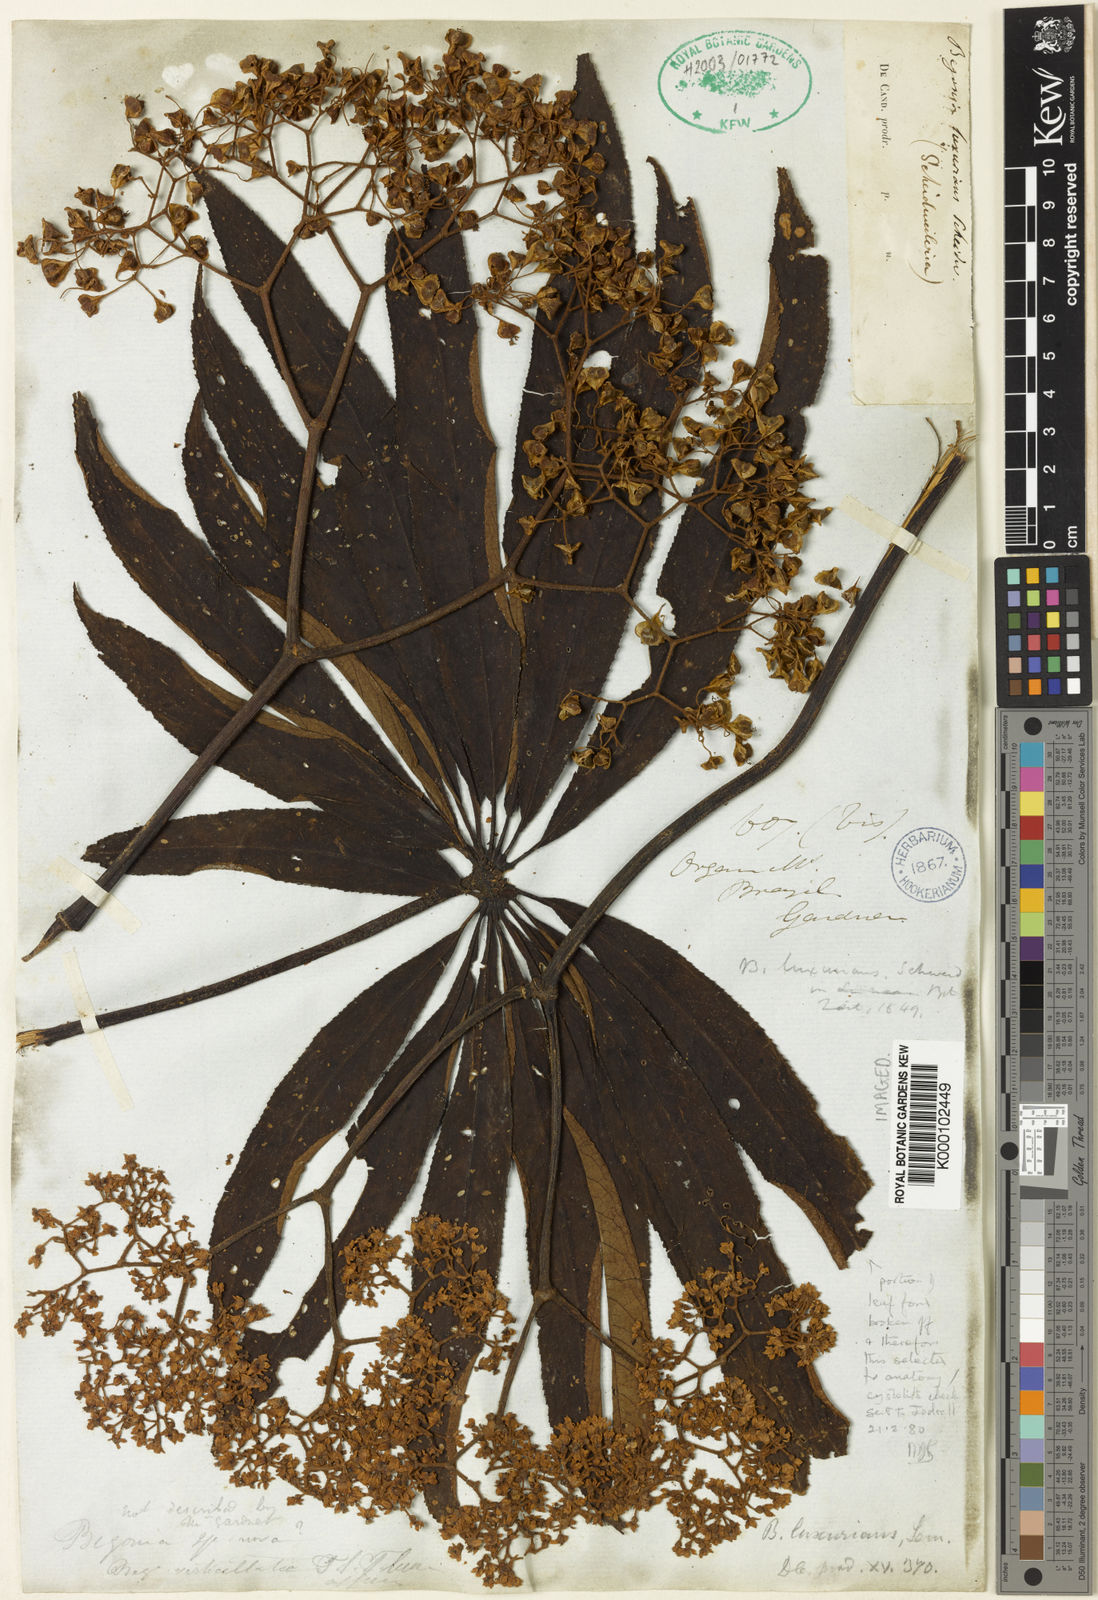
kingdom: Plantae
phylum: Tracheophyta
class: Magnoliopsida
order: Cucurbitales
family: Begoniaceae
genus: Begonia
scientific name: Begonia
